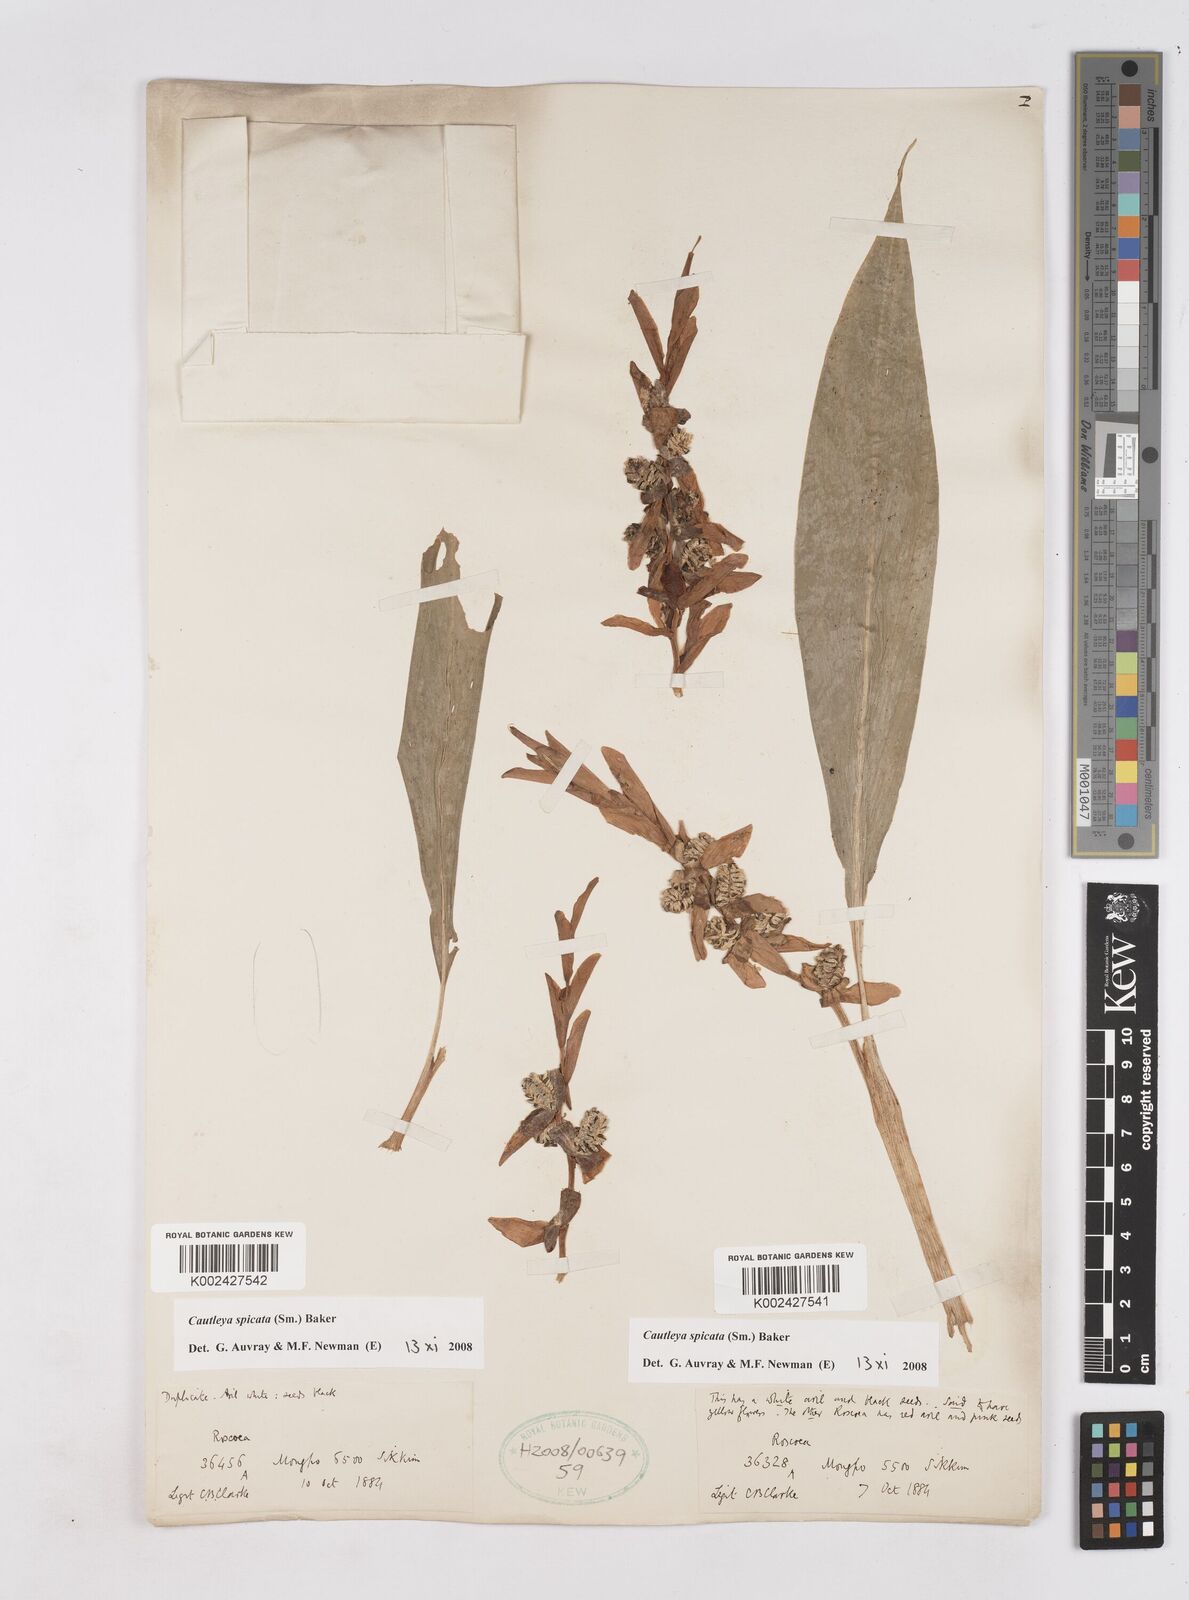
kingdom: Plantae
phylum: Tracheophyta
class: Liliopsida
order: Zingiberales
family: Zingiberaceae
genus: Cautleya
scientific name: Cautleya spicata
